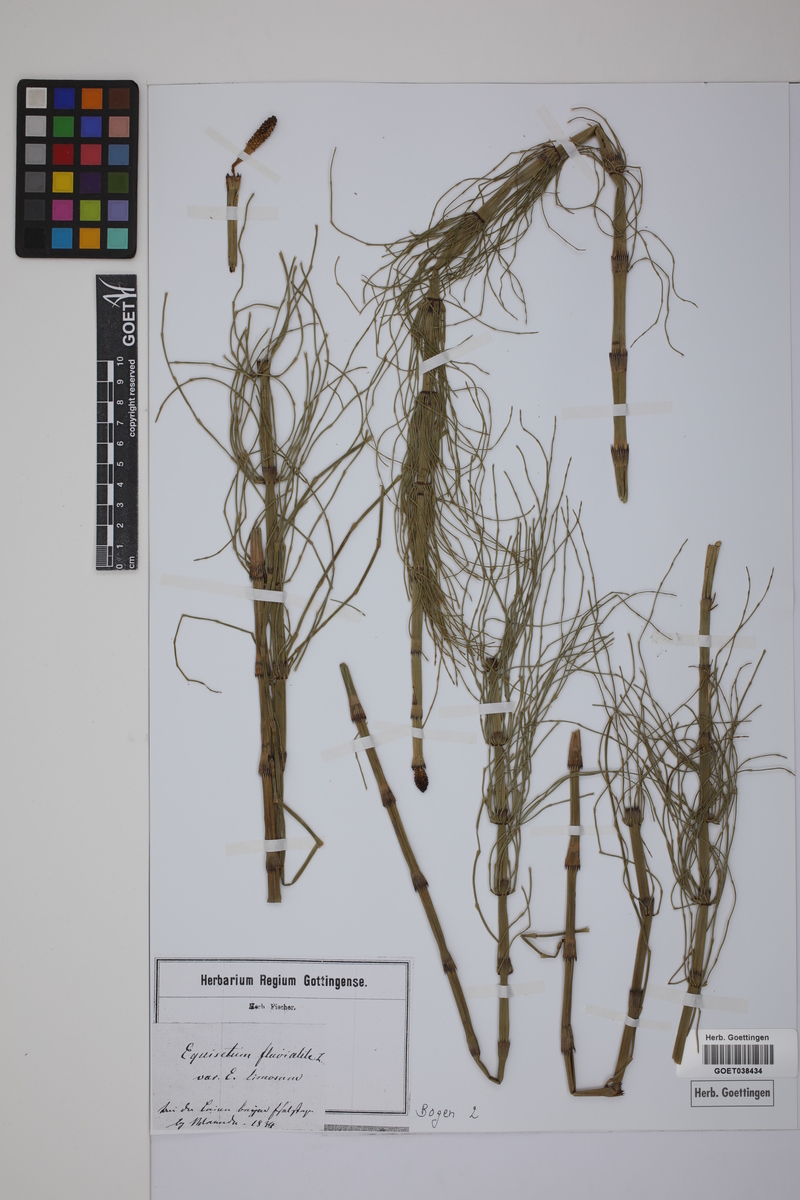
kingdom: Plantae
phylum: Tracheophyta
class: Polypodiopsida
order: Equisetales
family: Equisetaceae
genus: Equisetum
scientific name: Equisetum fluviatile
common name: Water horsetail
